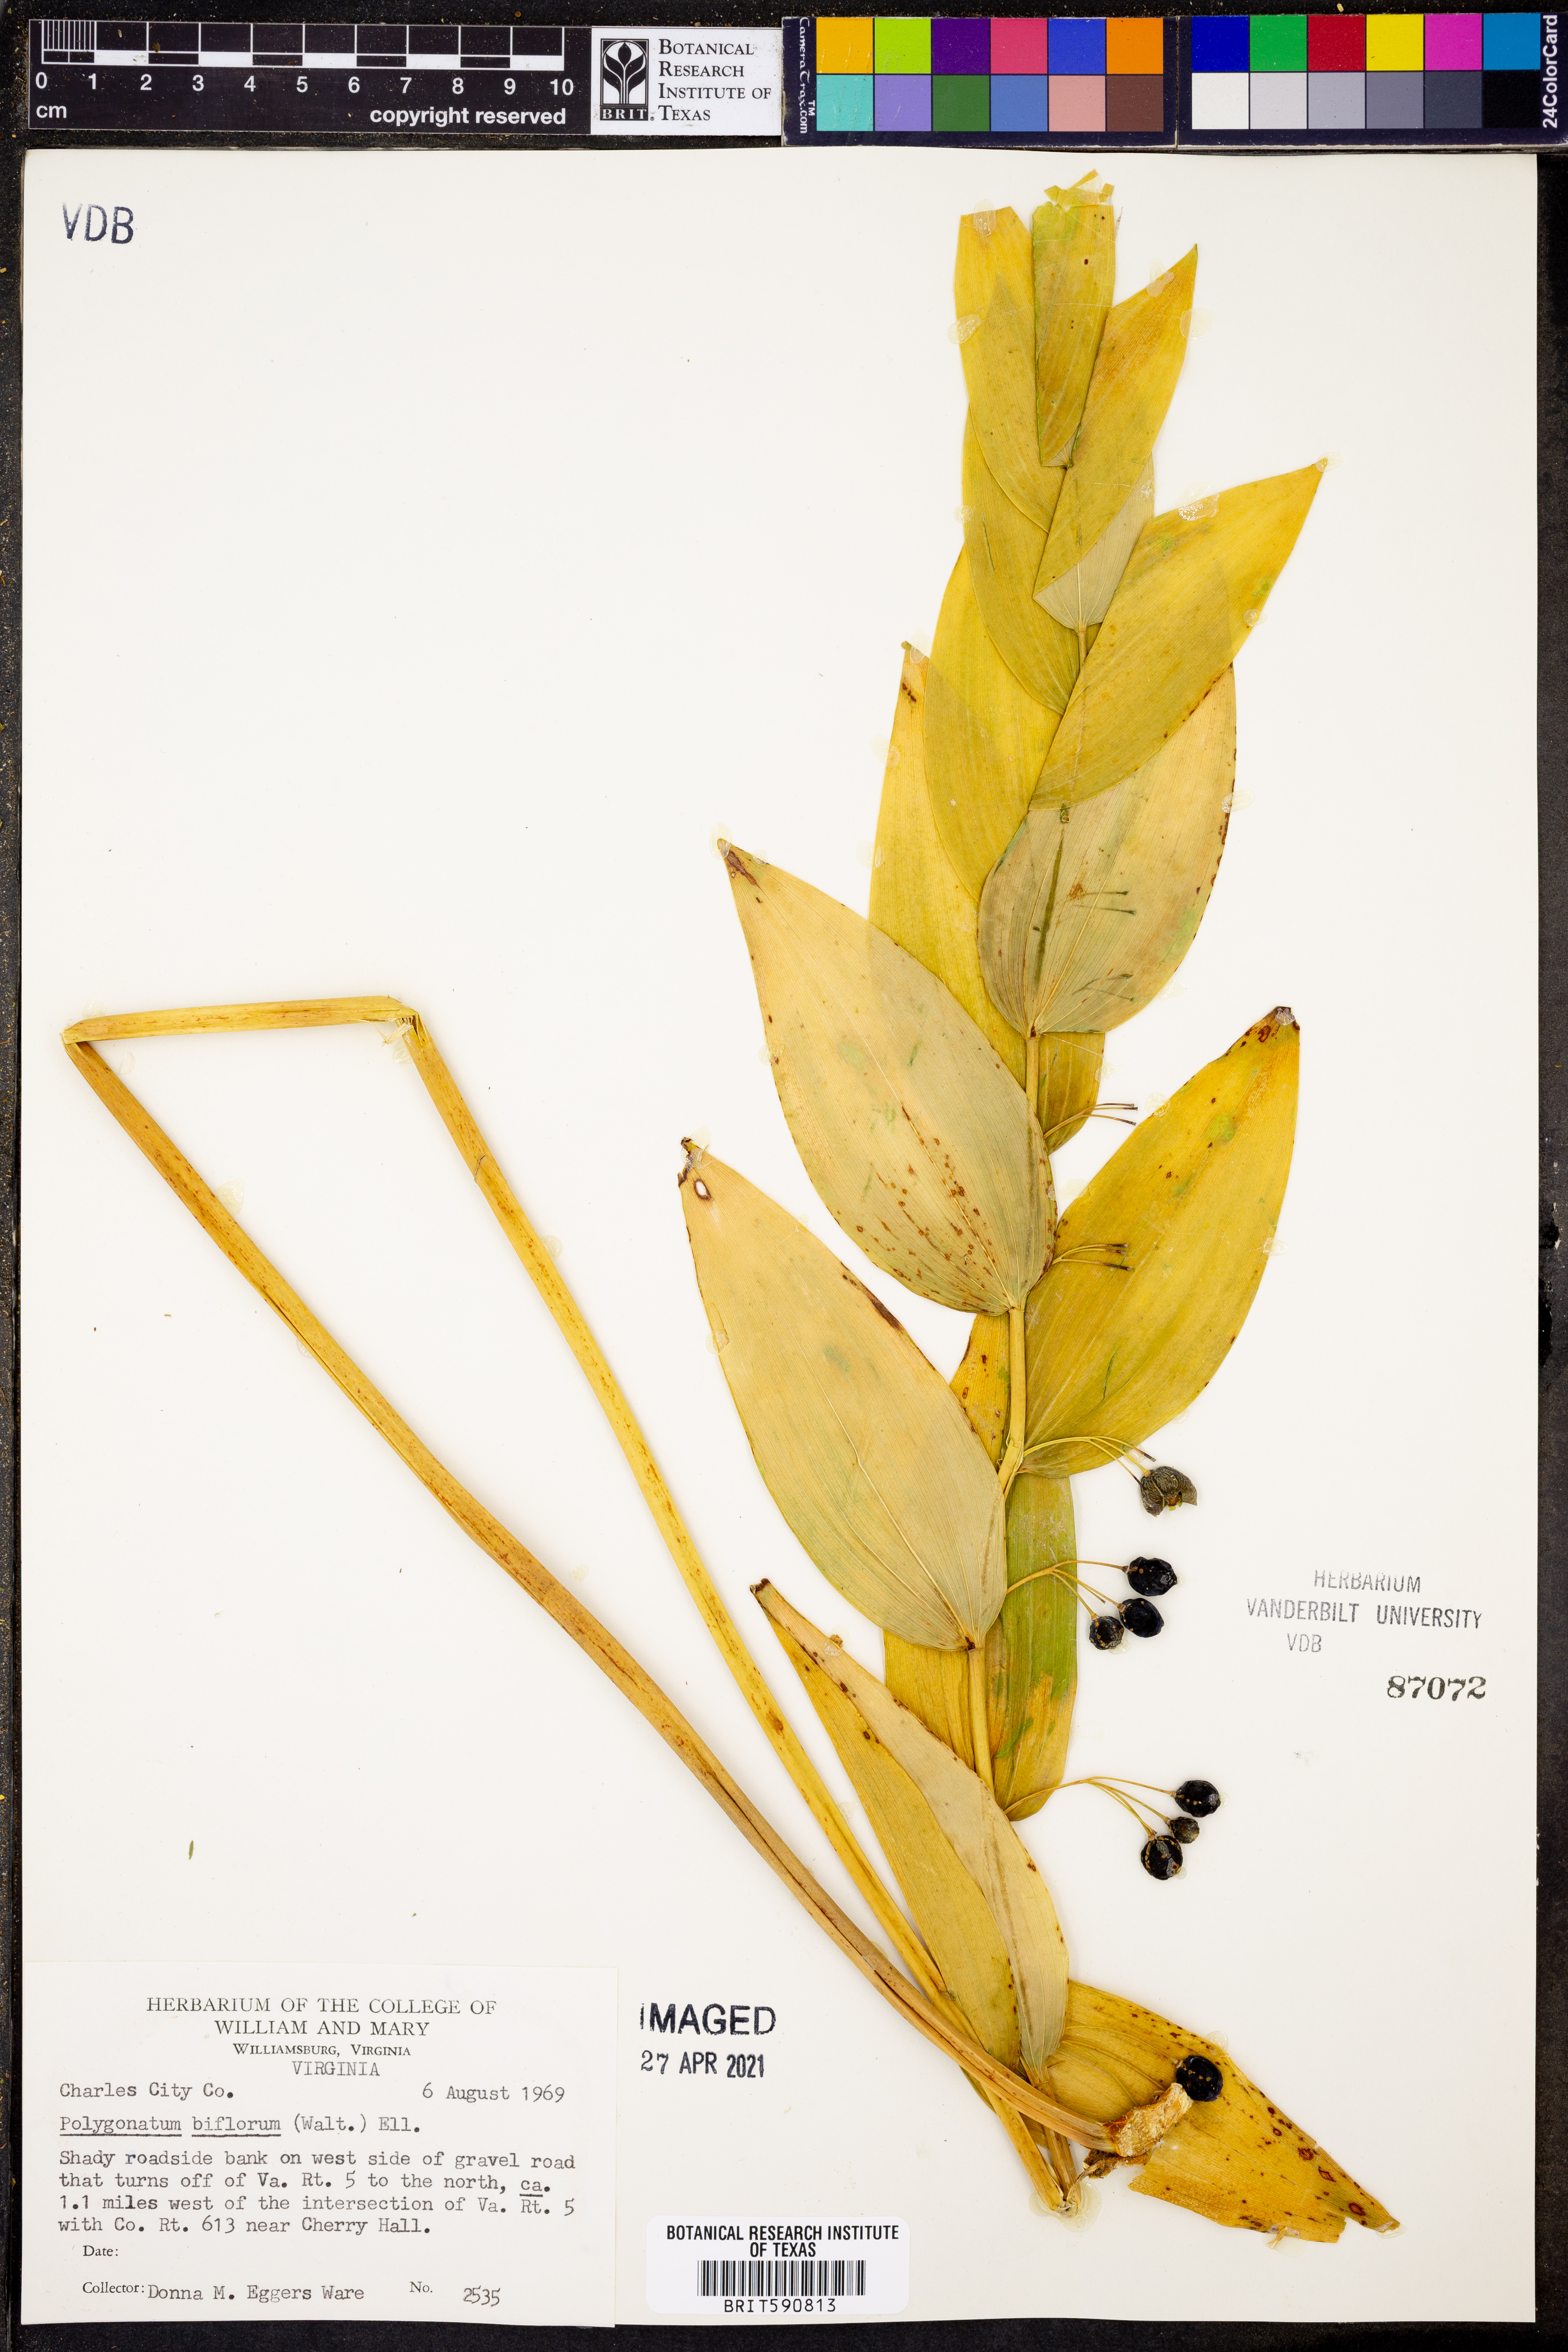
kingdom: Plantae
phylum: Tracheophyta
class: Liliopsida
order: Asparagales
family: Asparagaceae
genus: Polygonatum
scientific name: Polygonatum biflorum
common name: American solomon's-seal
